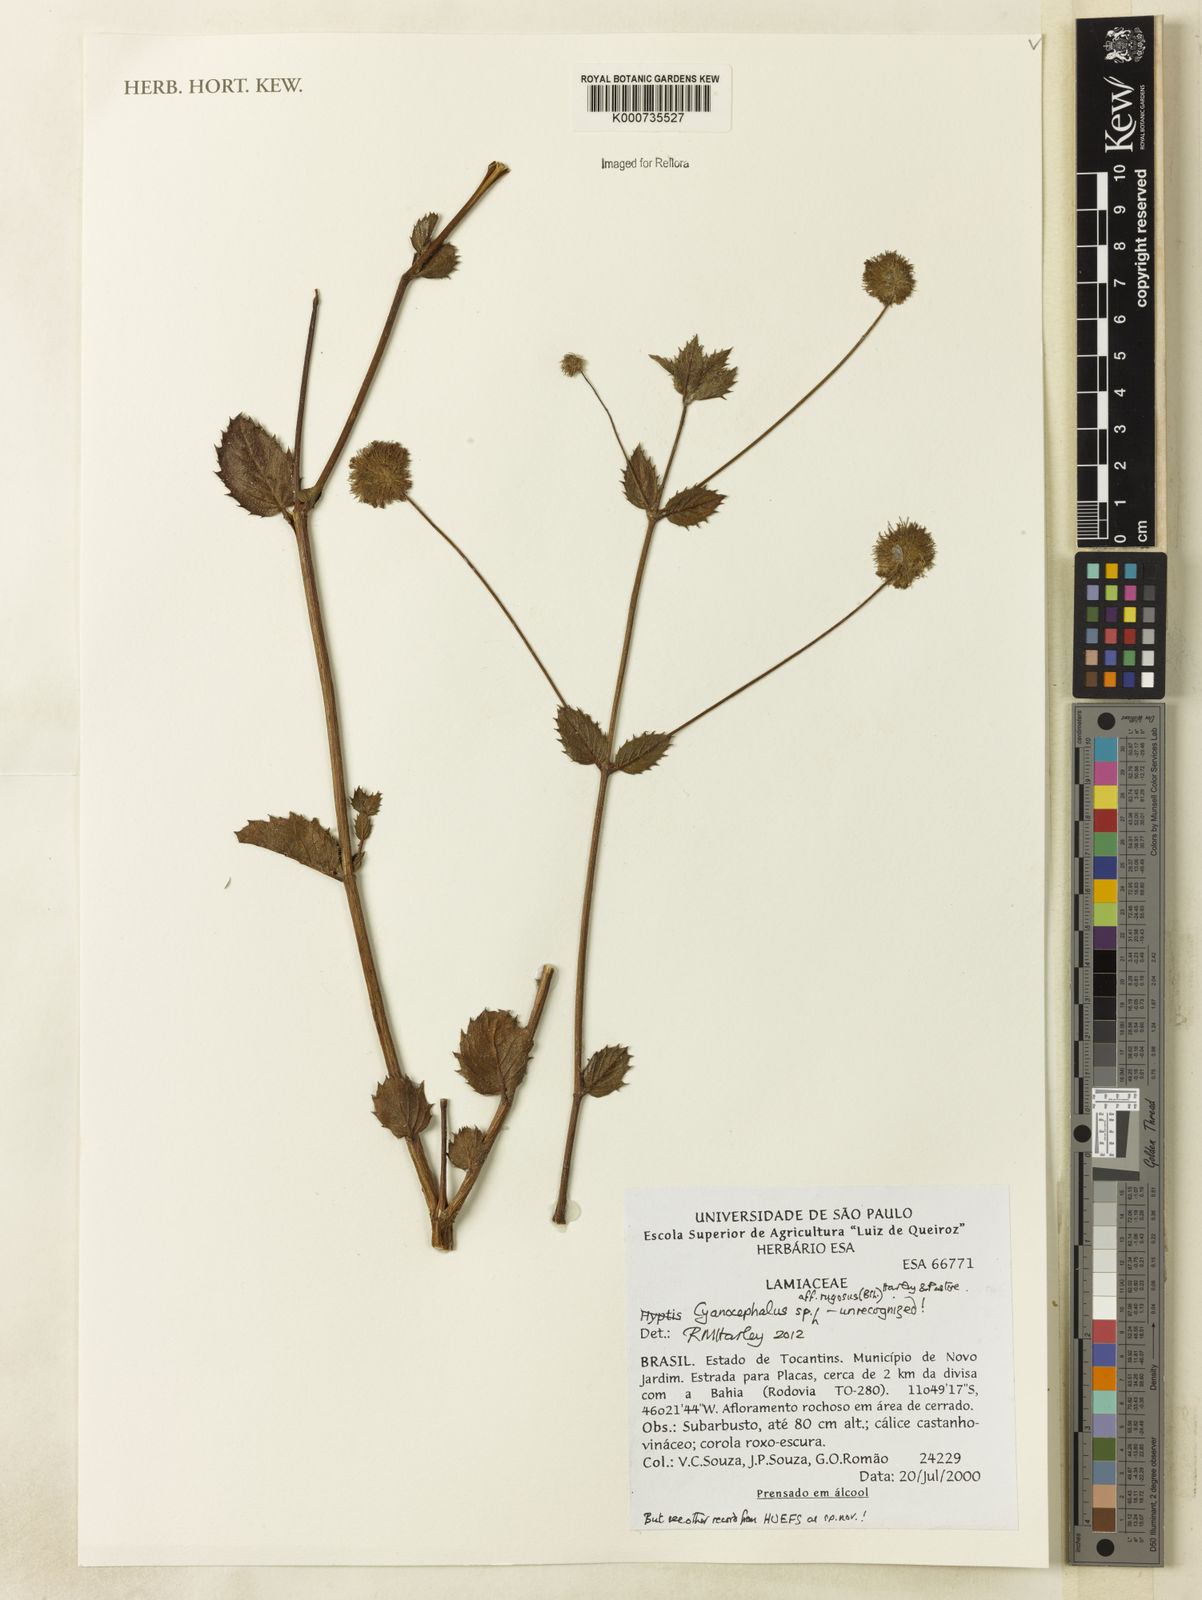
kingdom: Plantae
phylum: Tracheophyta
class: Magnoliopsida
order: Lamiales
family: Lamiaceae
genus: Cyanocephalus
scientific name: Cyanocephalus
